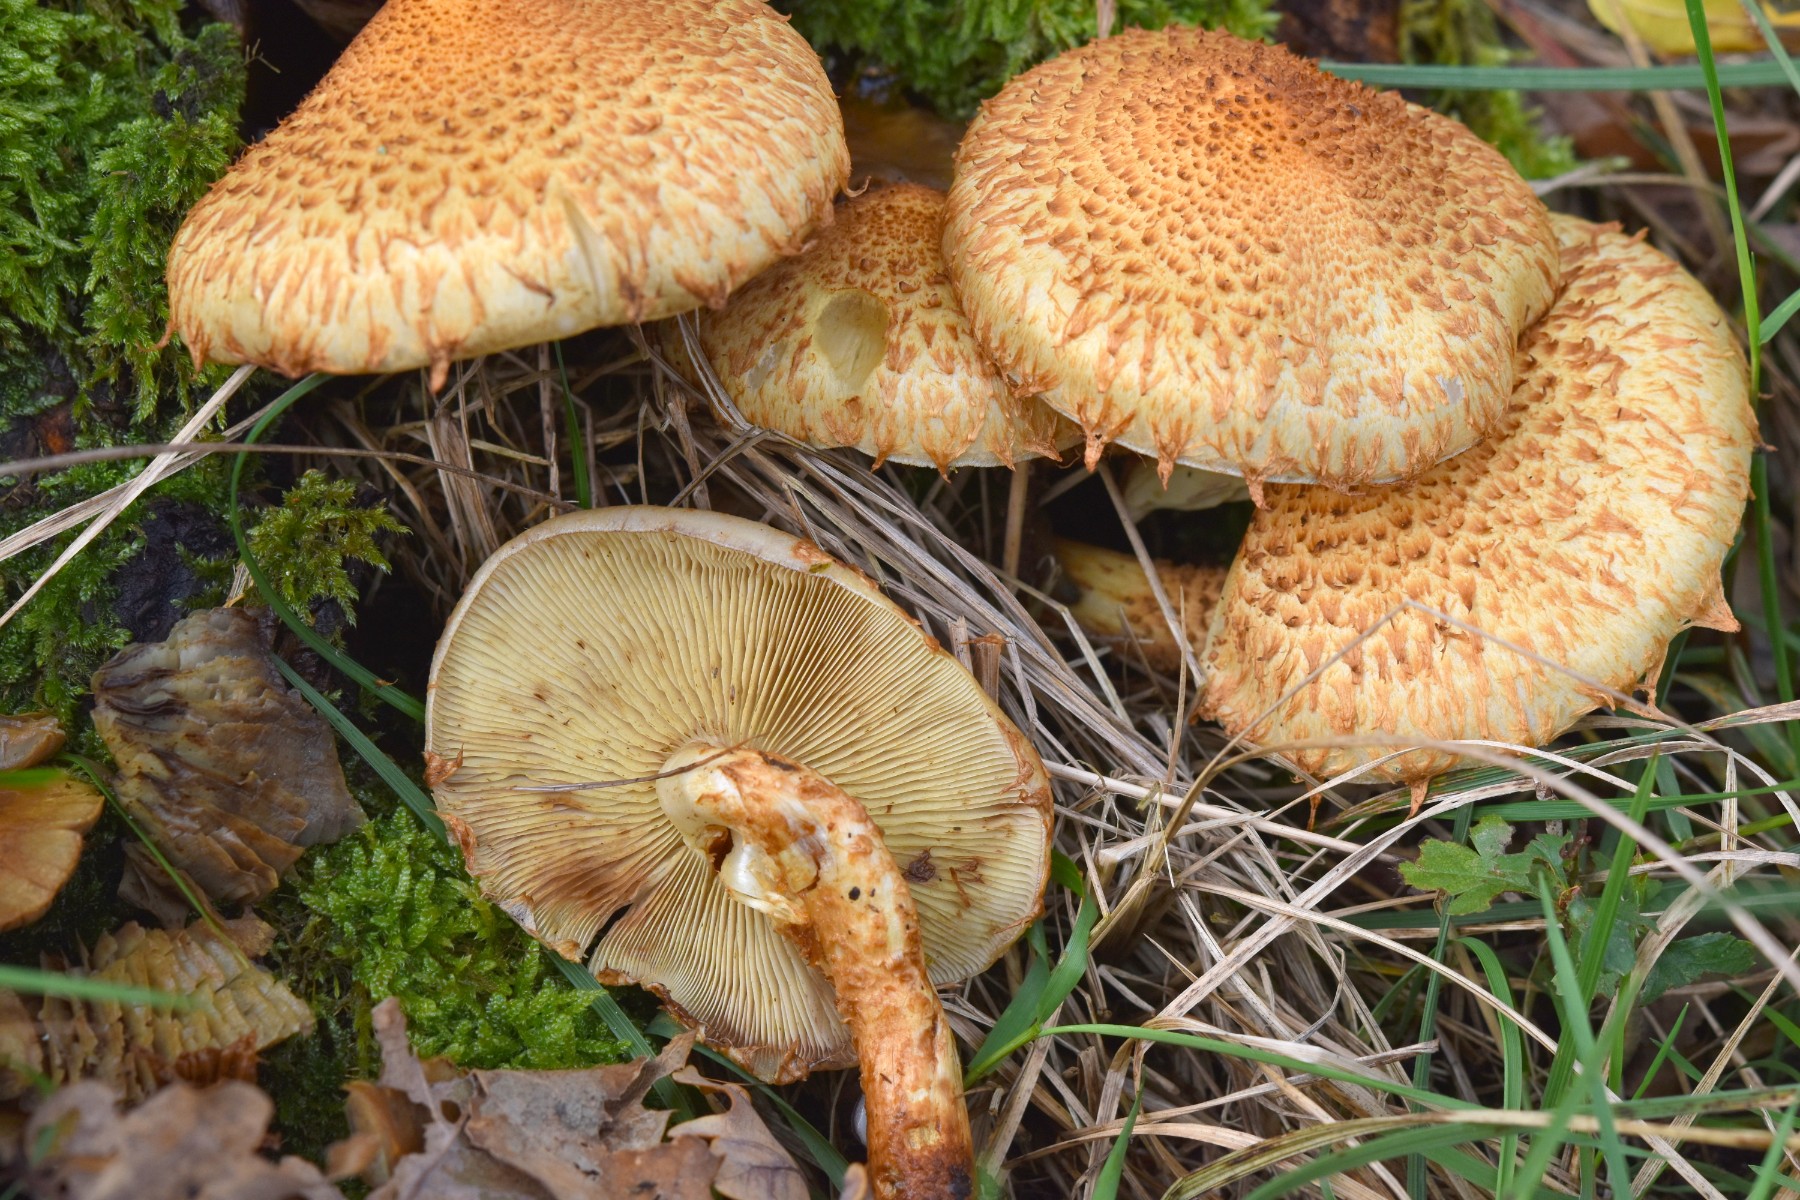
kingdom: Fungi
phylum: Basidiomycota
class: Agaricomycetes
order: Agaricales
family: Strophariaceae
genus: Pholiota
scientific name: Pholiota squarrosa
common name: krumskællet skælhat
